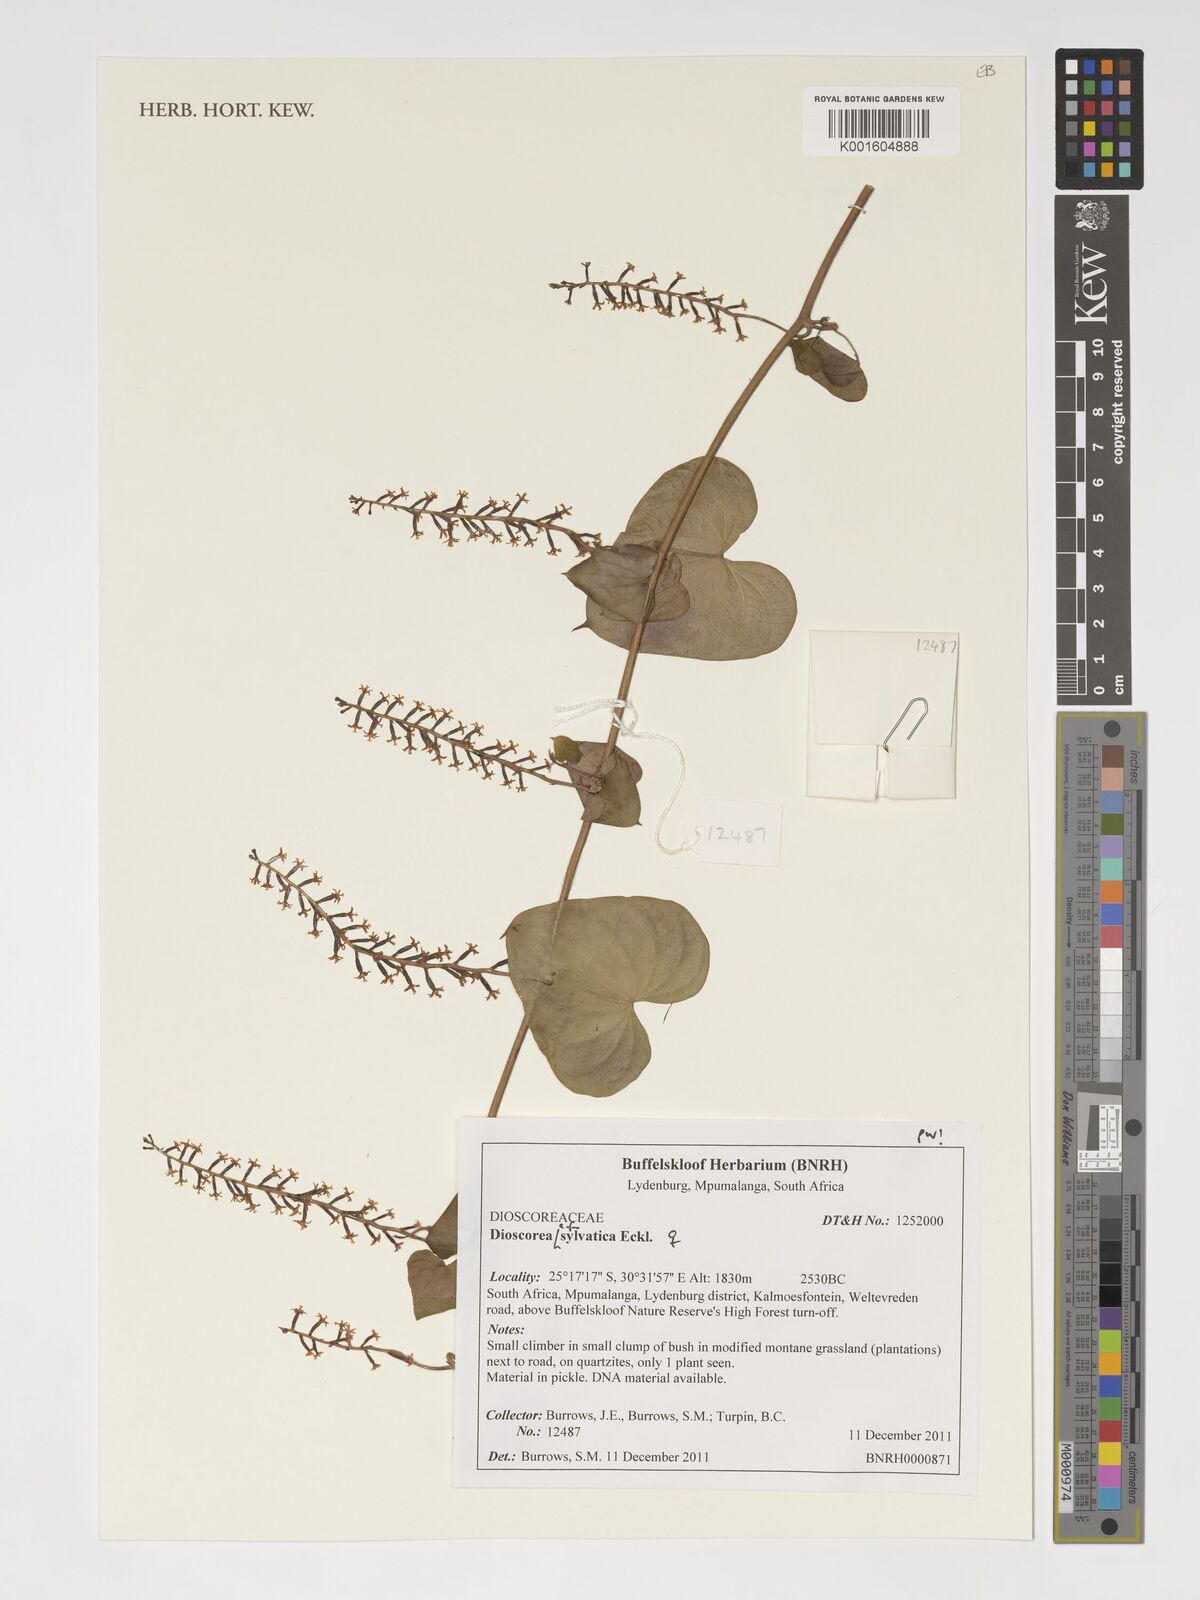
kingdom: Plantae
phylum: Tracheophyta
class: Liliopsida
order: Dioscoreales
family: Dioscoreaceae
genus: Dioscorea
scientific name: Dioscorea sylvatica
